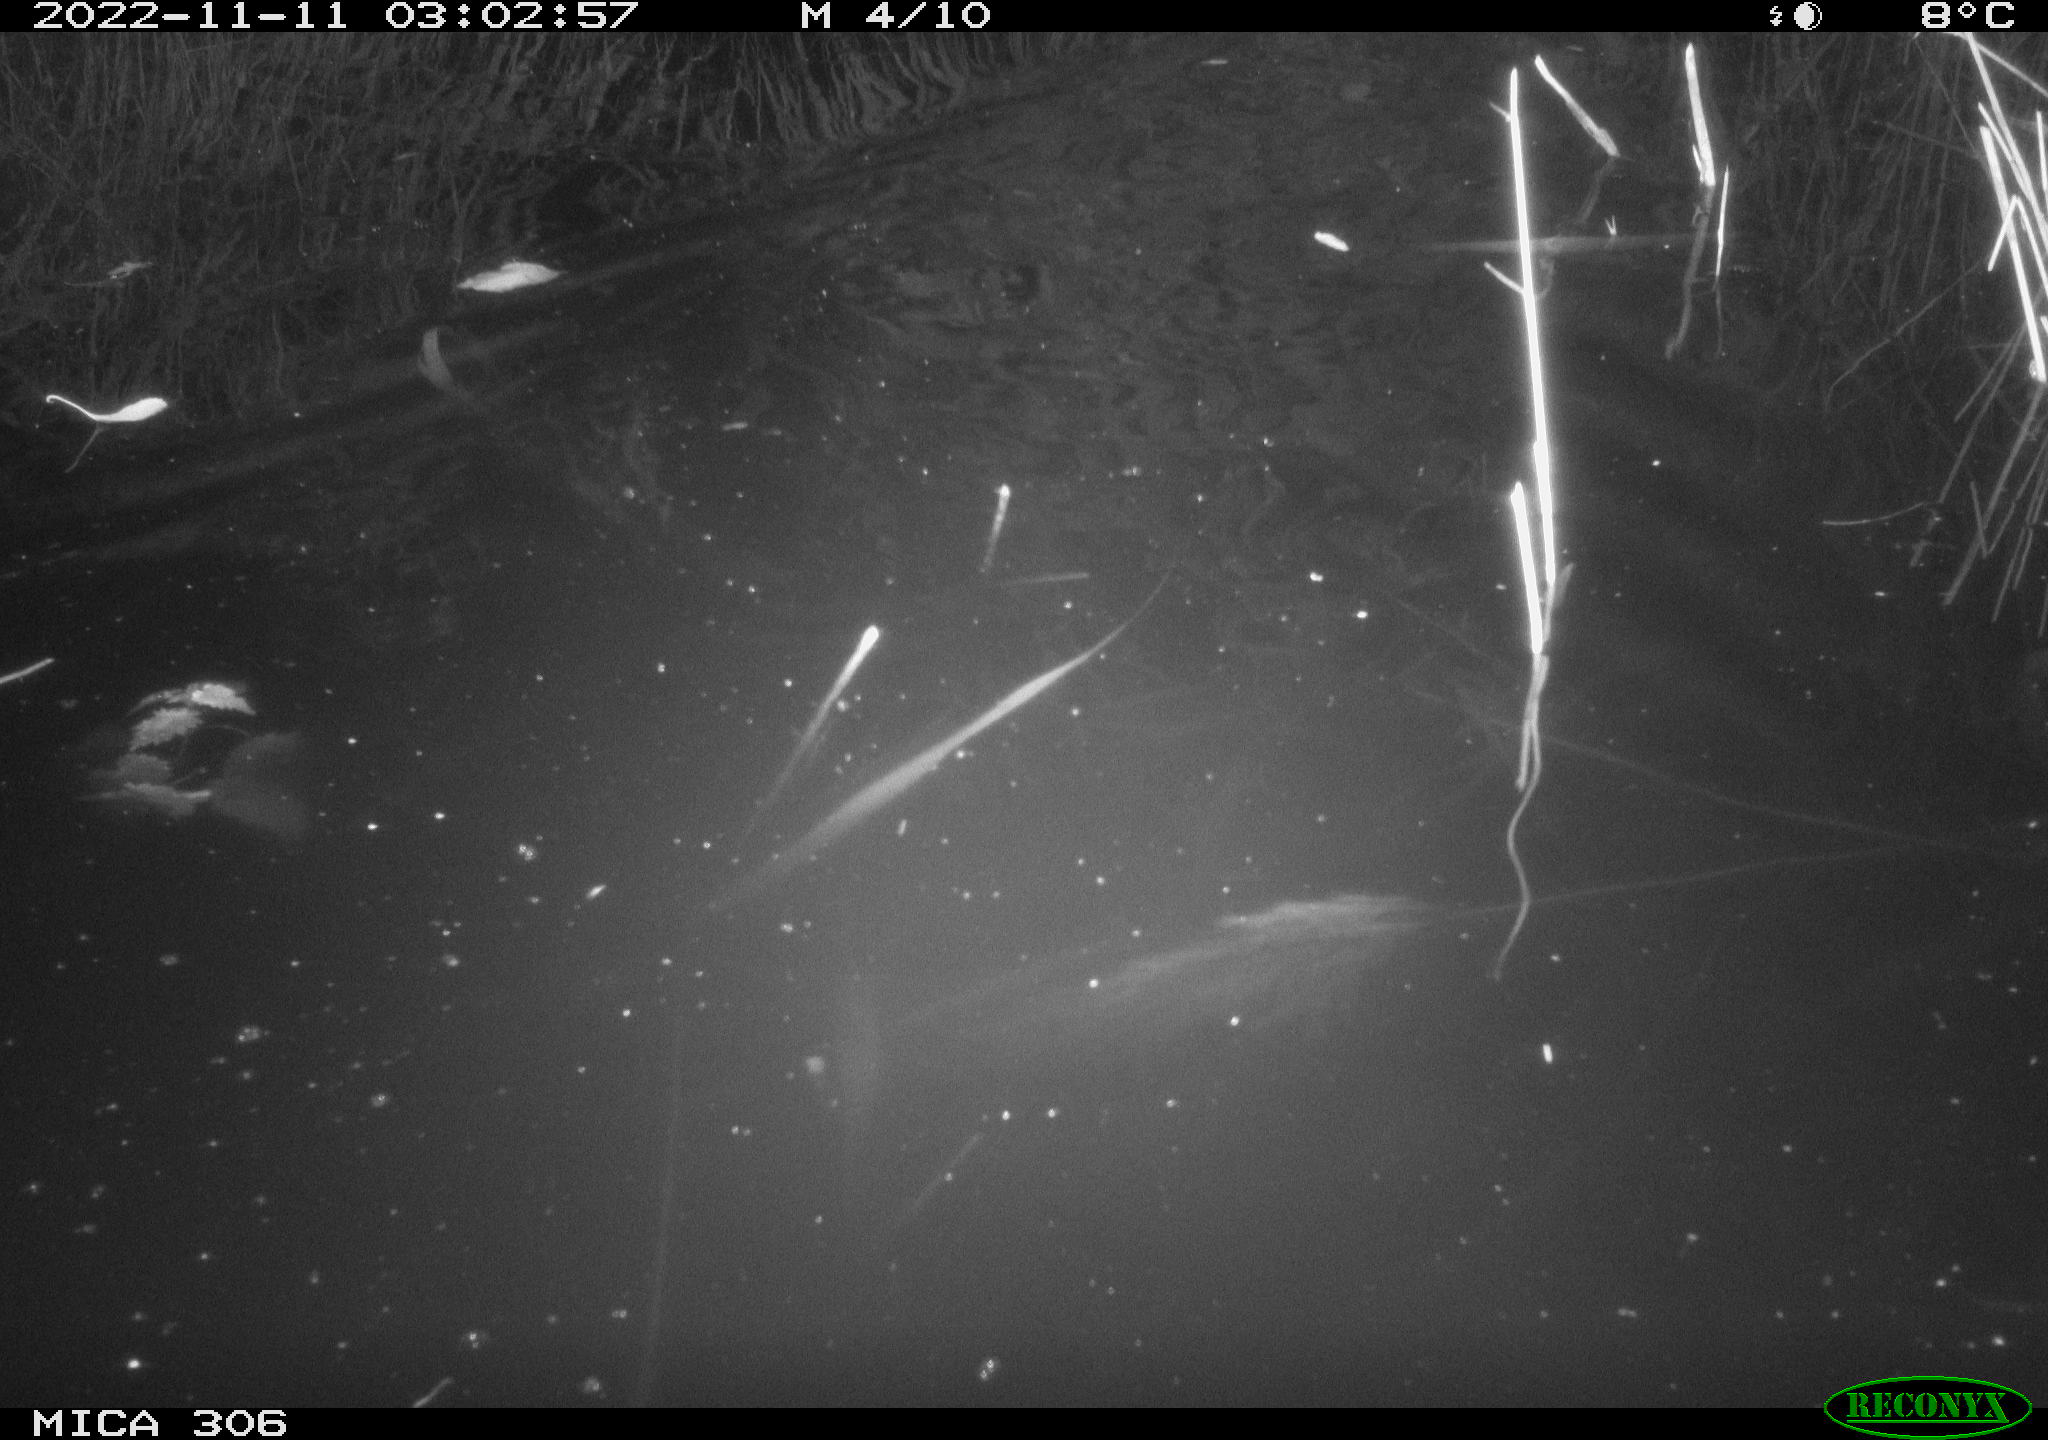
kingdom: Animalia
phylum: Chordata
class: Mammalia
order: Rodentia
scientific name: Rodentia
